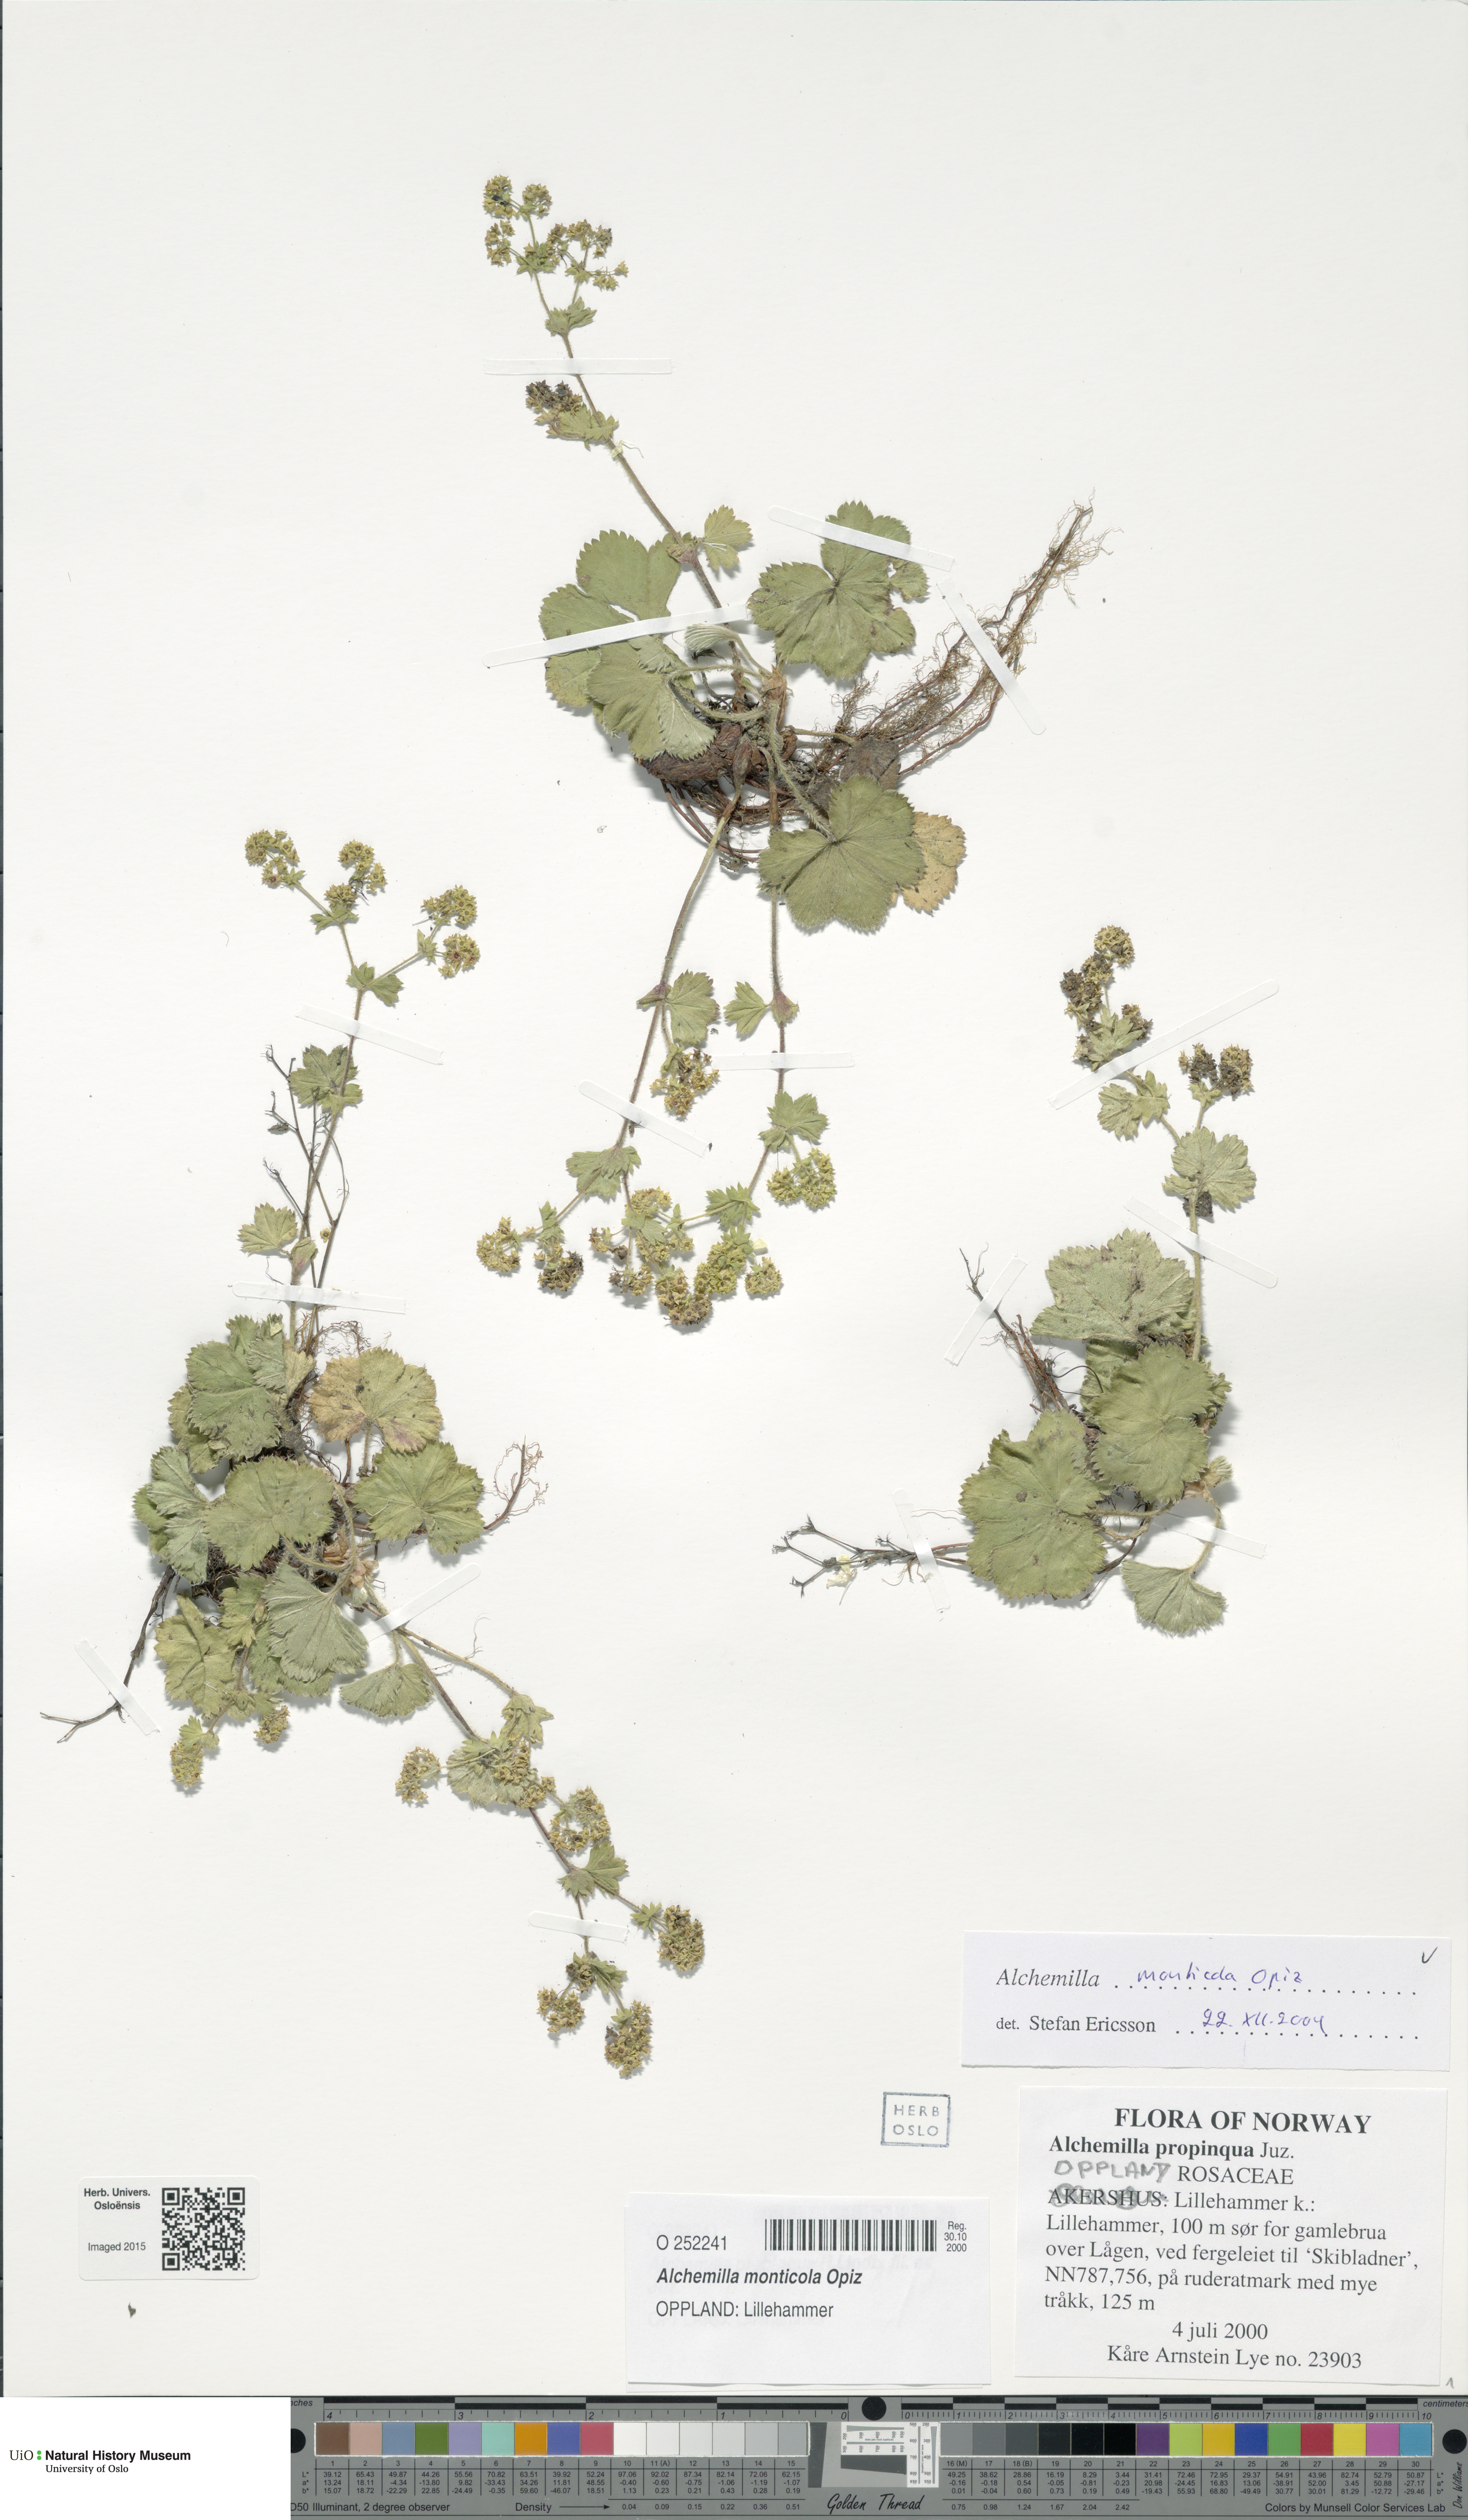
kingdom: Plantae
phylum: Tracheophyta
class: Magnoliopsida
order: Rosales
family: Rosaceae
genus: Alchemilla
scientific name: Alchemilla monticola
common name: Hairy lady's mantle
